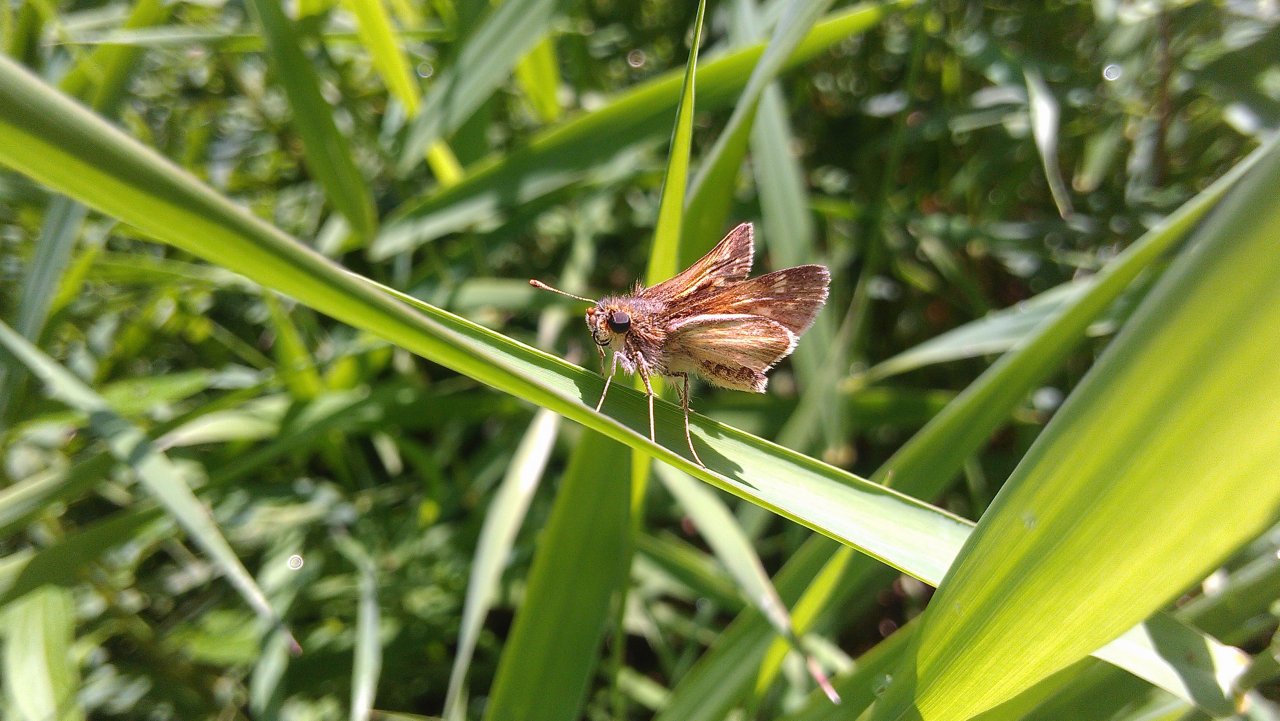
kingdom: Animalia
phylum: Arthropoda
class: Insecta
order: Lepidoptera
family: Hesperiidae
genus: Polites
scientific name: Polites coras
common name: Peck's Skipper
